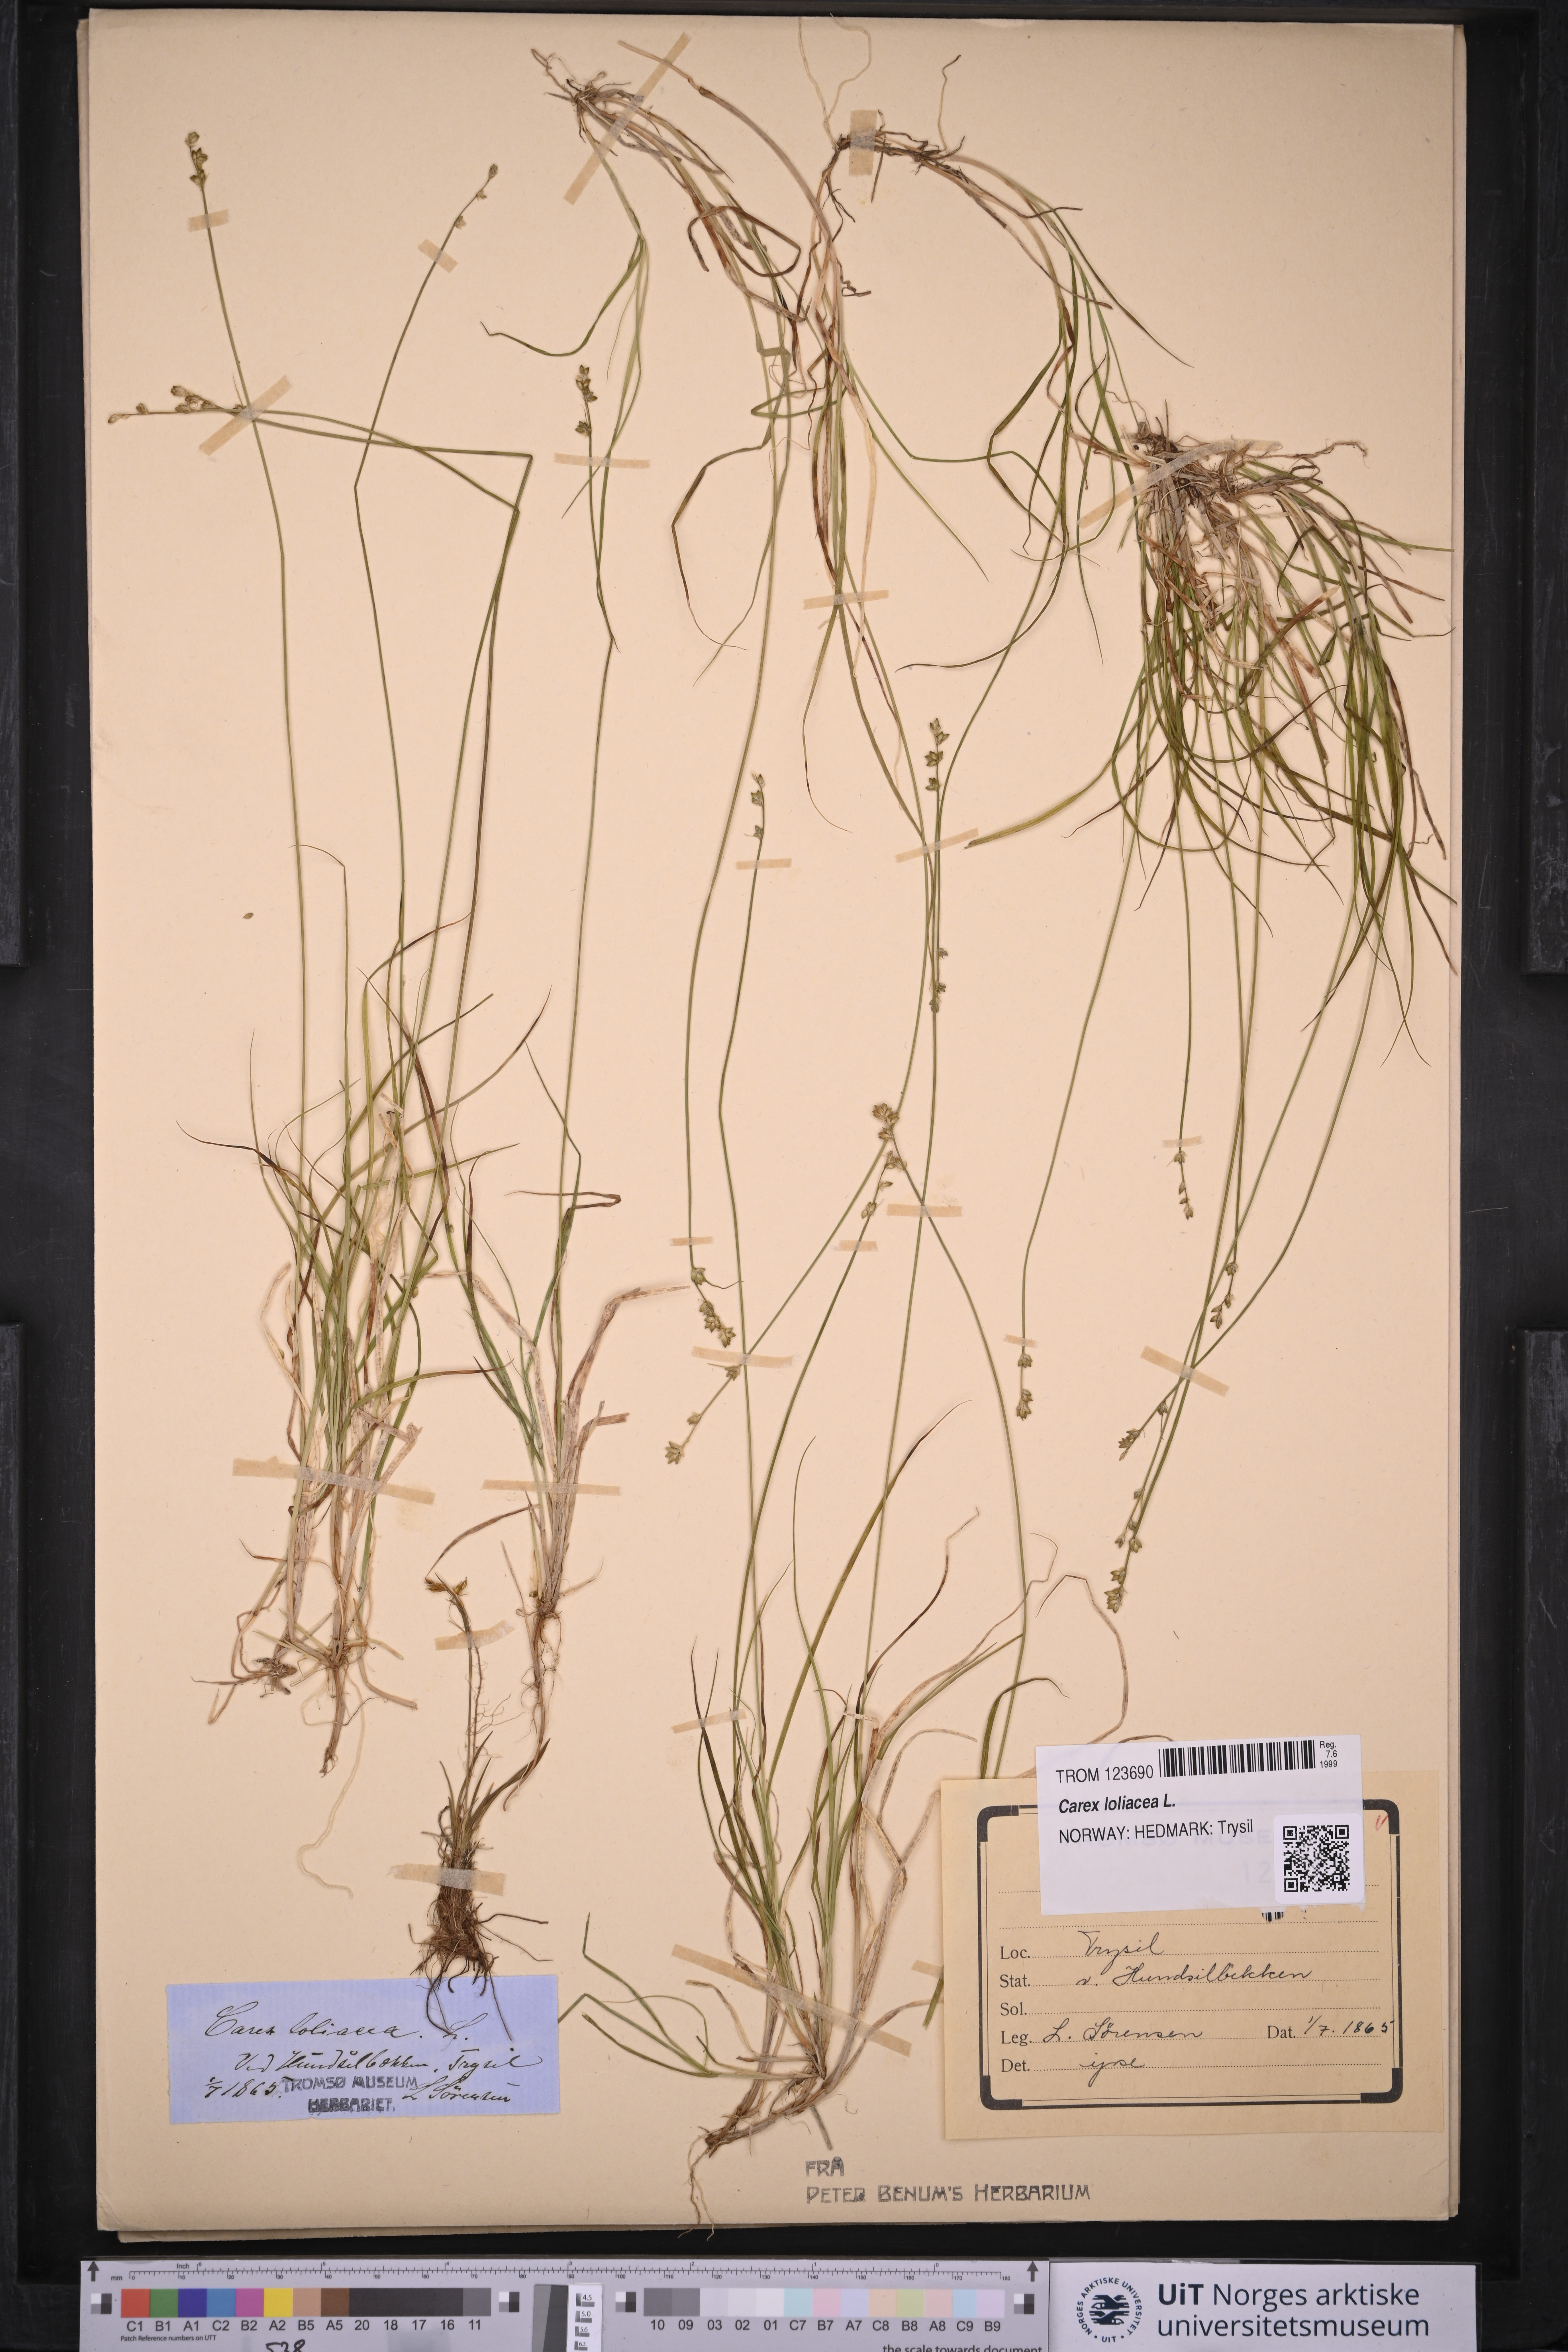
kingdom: Plantae
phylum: Tracheophyta
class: Liliopsida
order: Poales
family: Cyperaceae
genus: Carex
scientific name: Carex loliacea
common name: Ryegrass sedge
